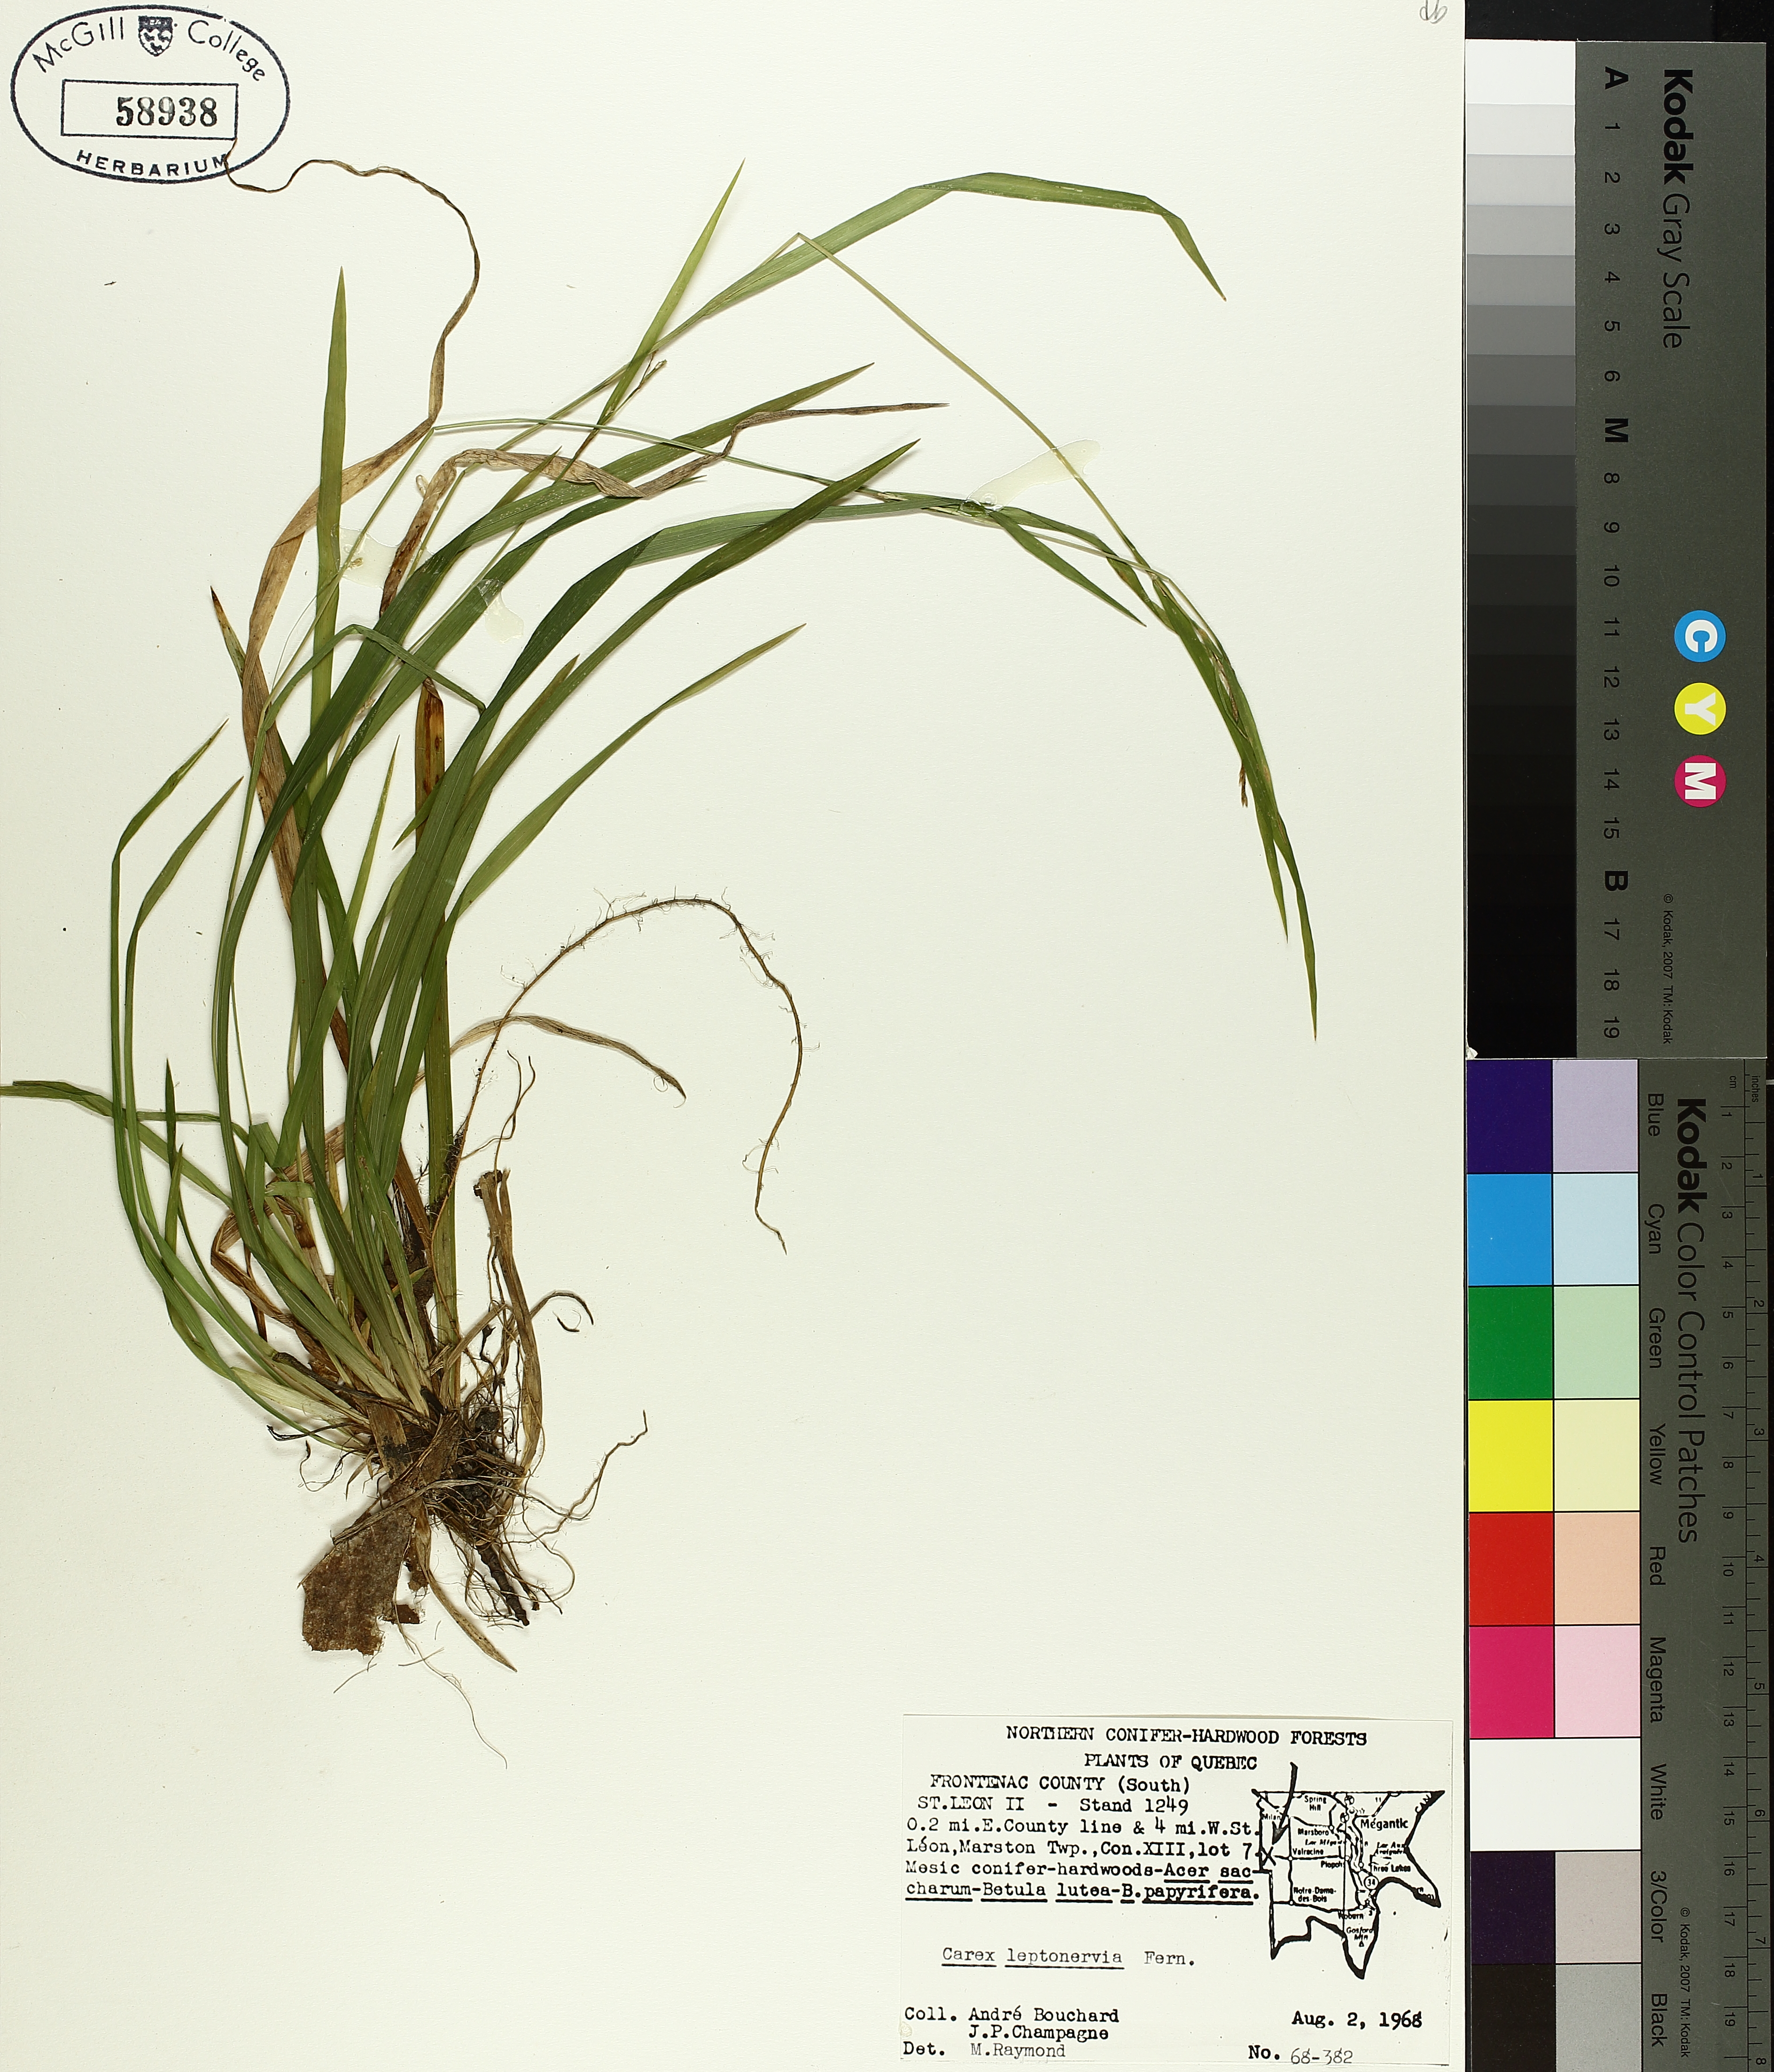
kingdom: Plantae
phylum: Tracheophyta
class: Liliopsida
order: Poales
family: Cyperaceae
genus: Carex
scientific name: Carex leptonervia
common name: Few-nerved wood sedge
